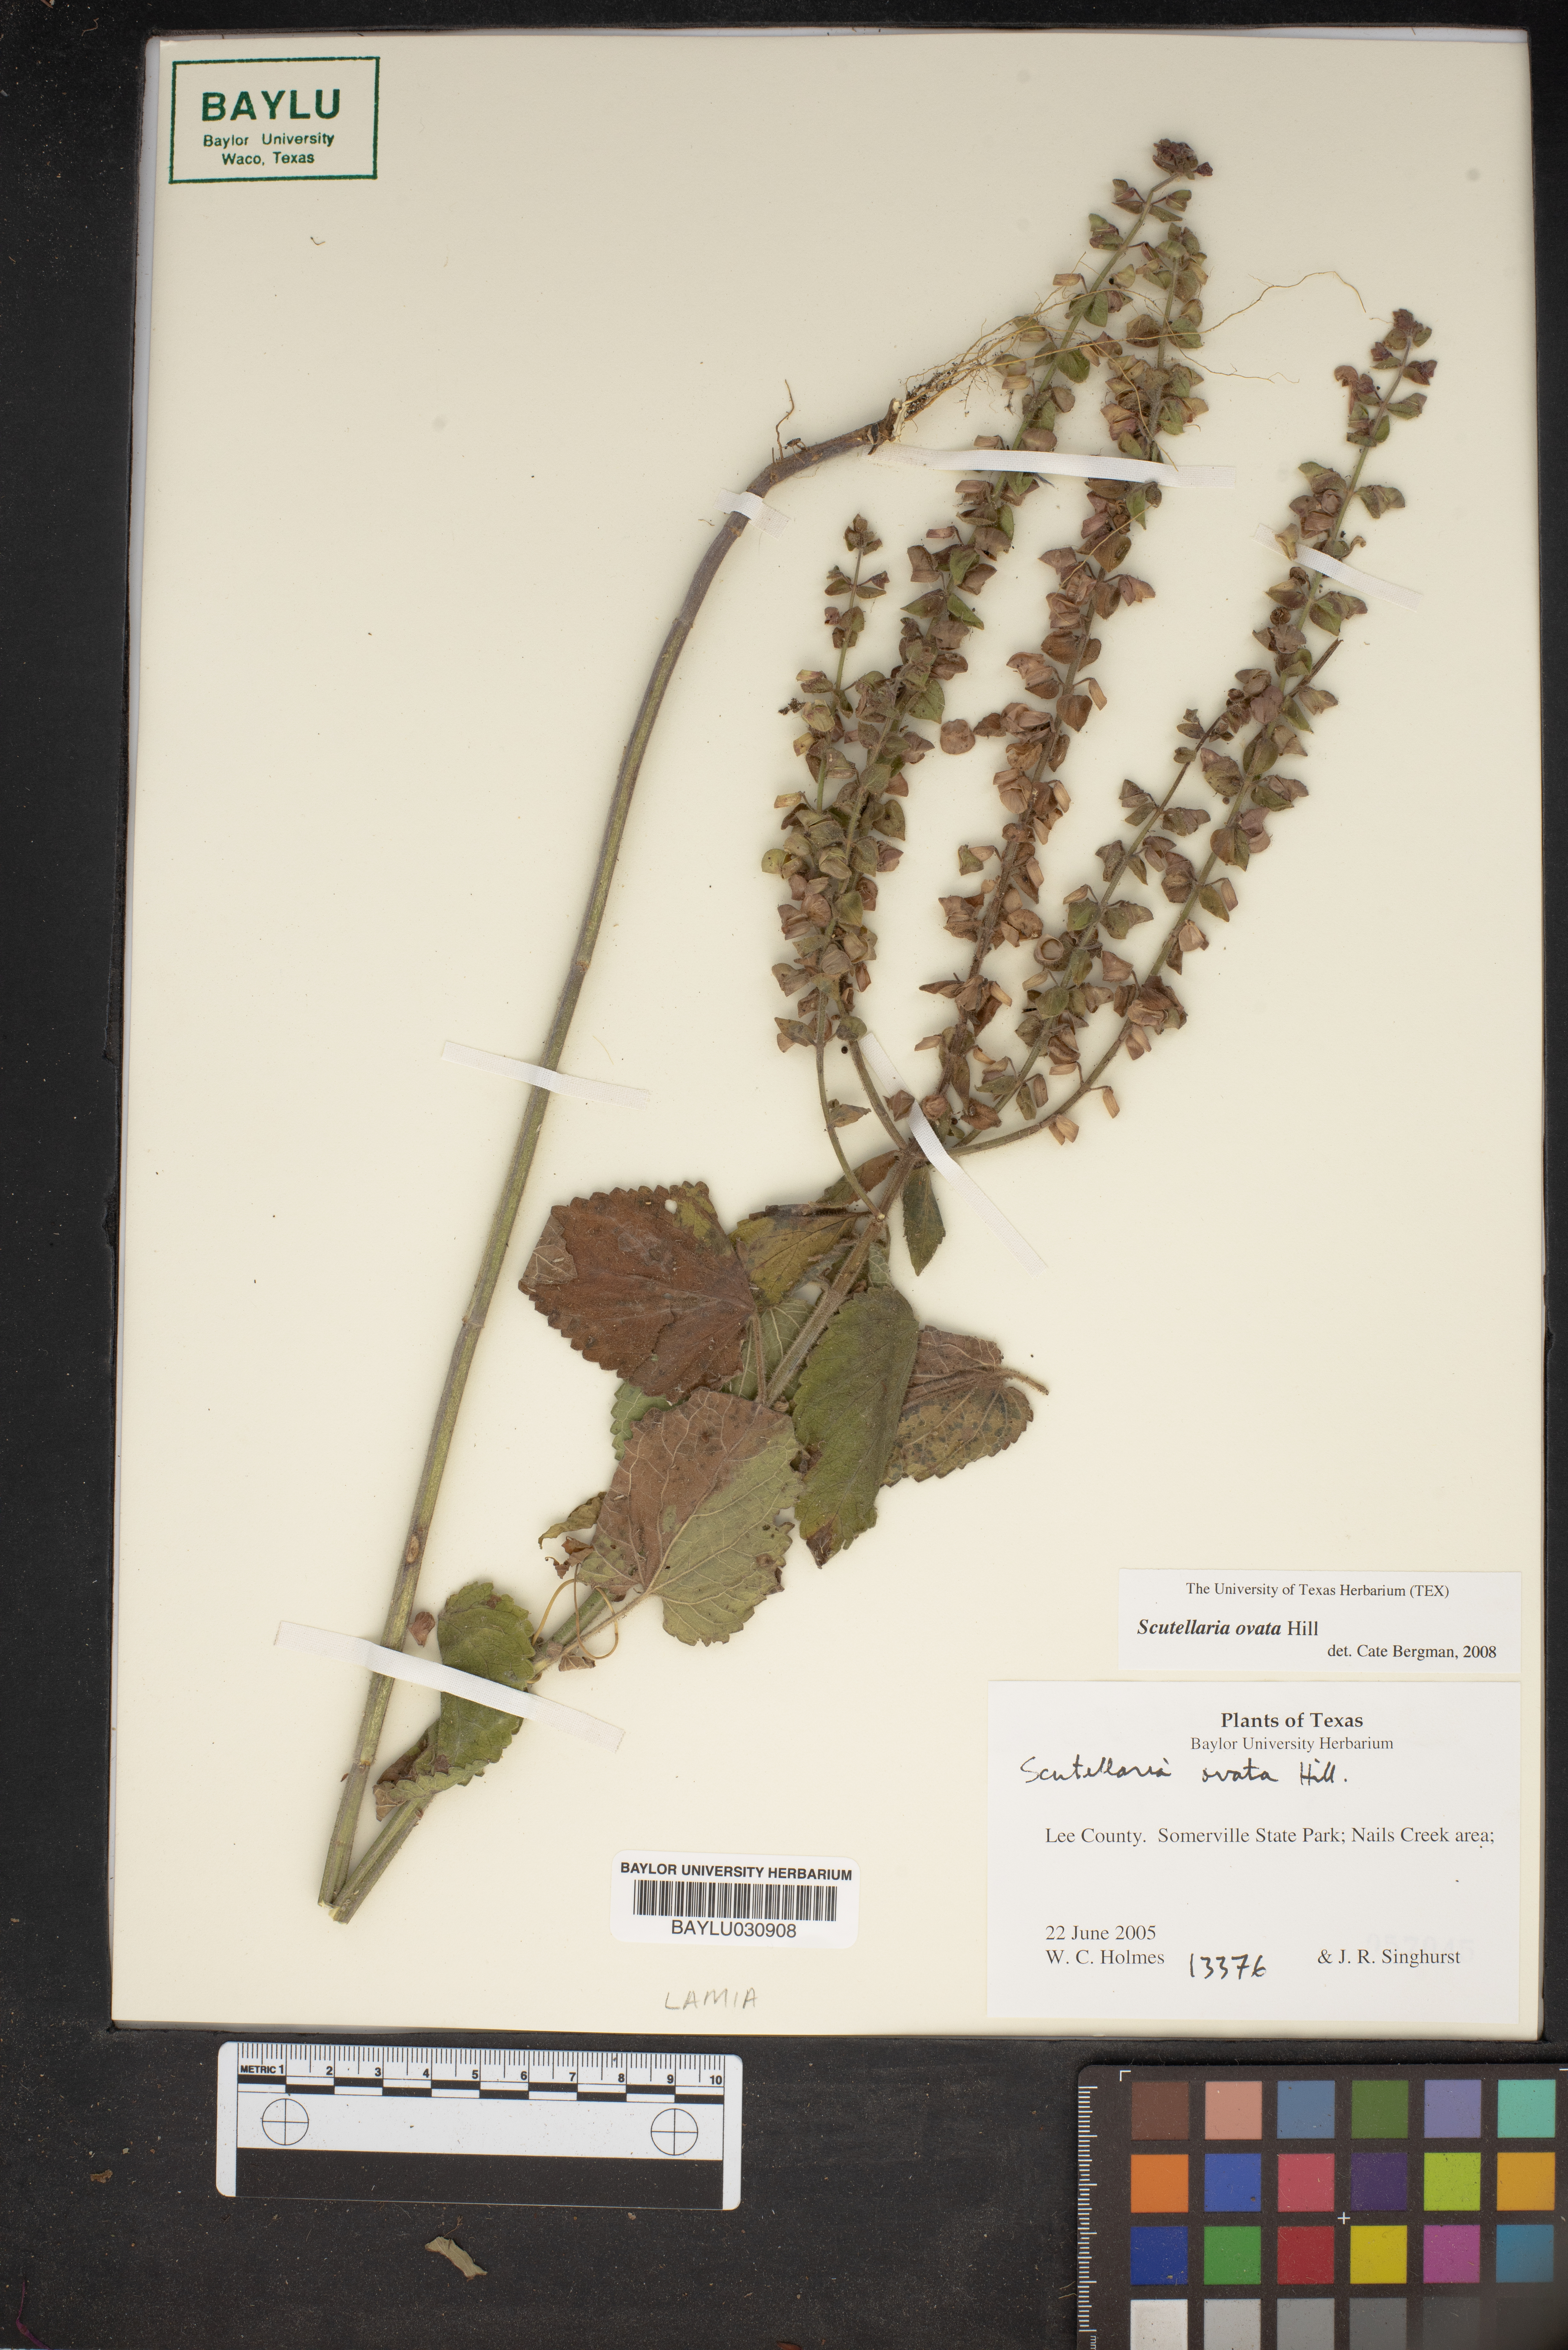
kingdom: Plantae
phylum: Tracheophyta
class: Magnoliopsida
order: Lamiales
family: Lamiaceae
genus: Scutellaria
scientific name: Scutellaria ovata
